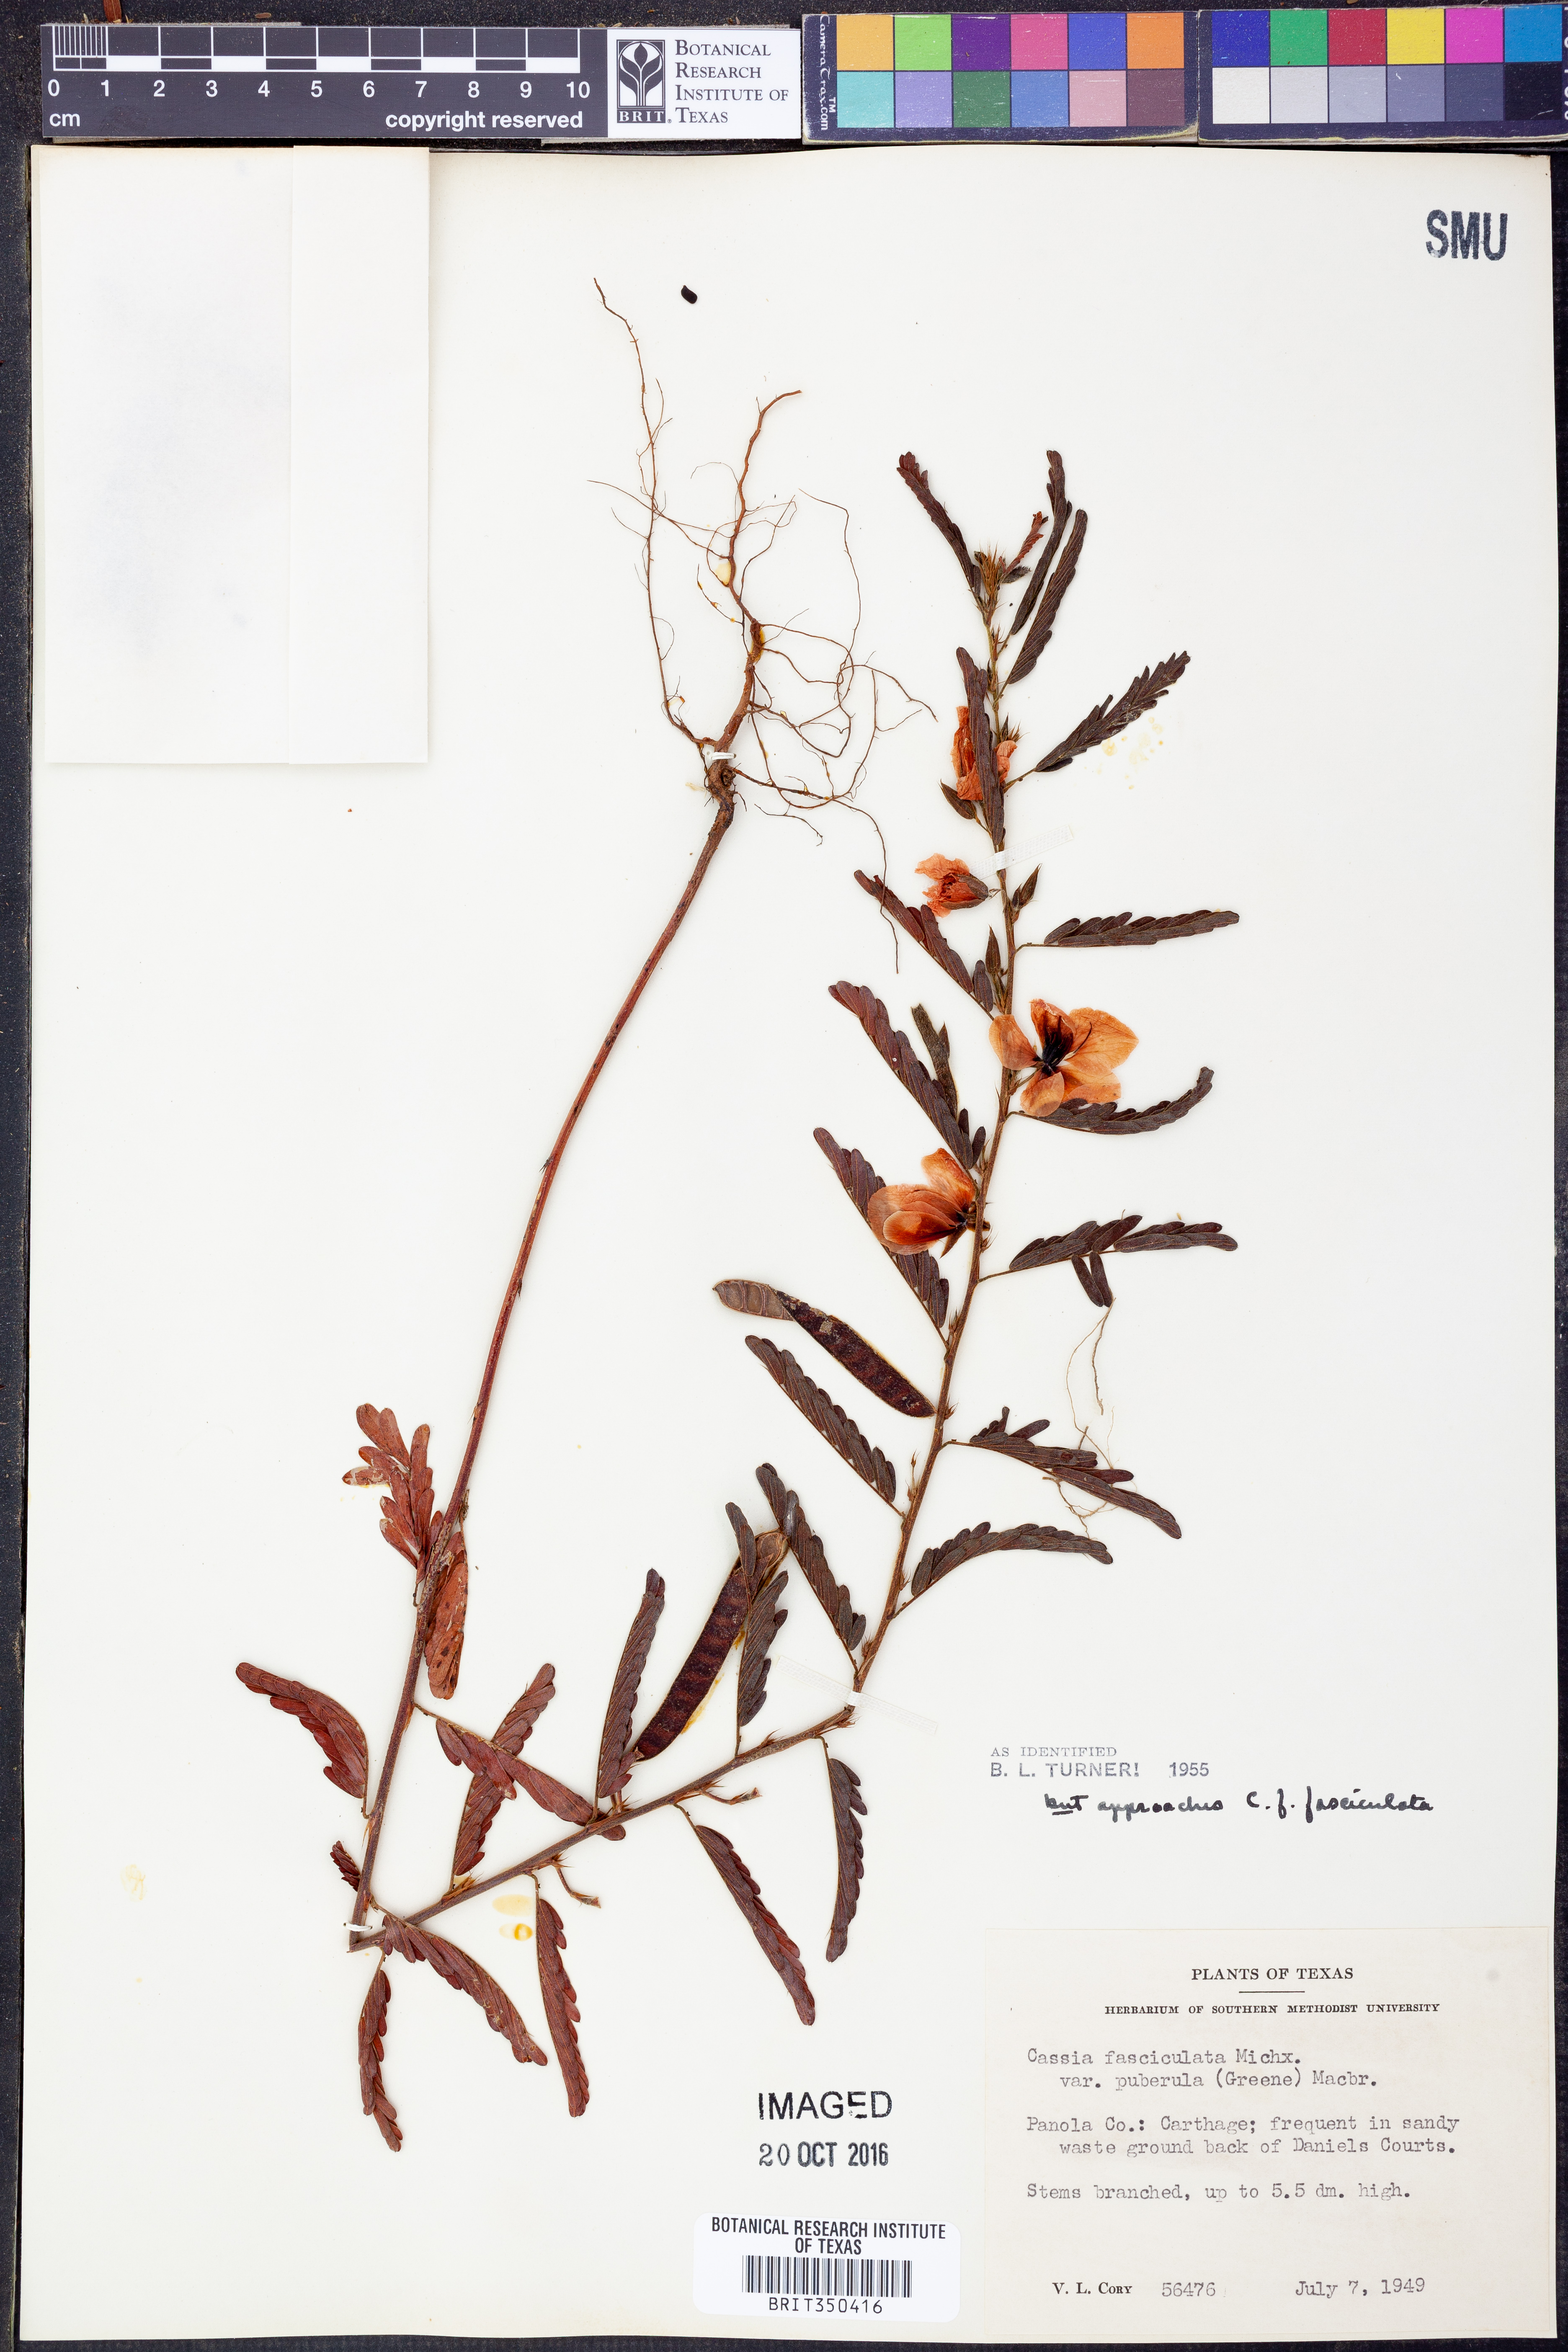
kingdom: Plantae
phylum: Tracheophyta
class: Magnoliopsida
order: Fabales
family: Fabaceae
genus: Chamaecrista
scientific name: Chamaecrista fasciculata
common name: Golden cassia
